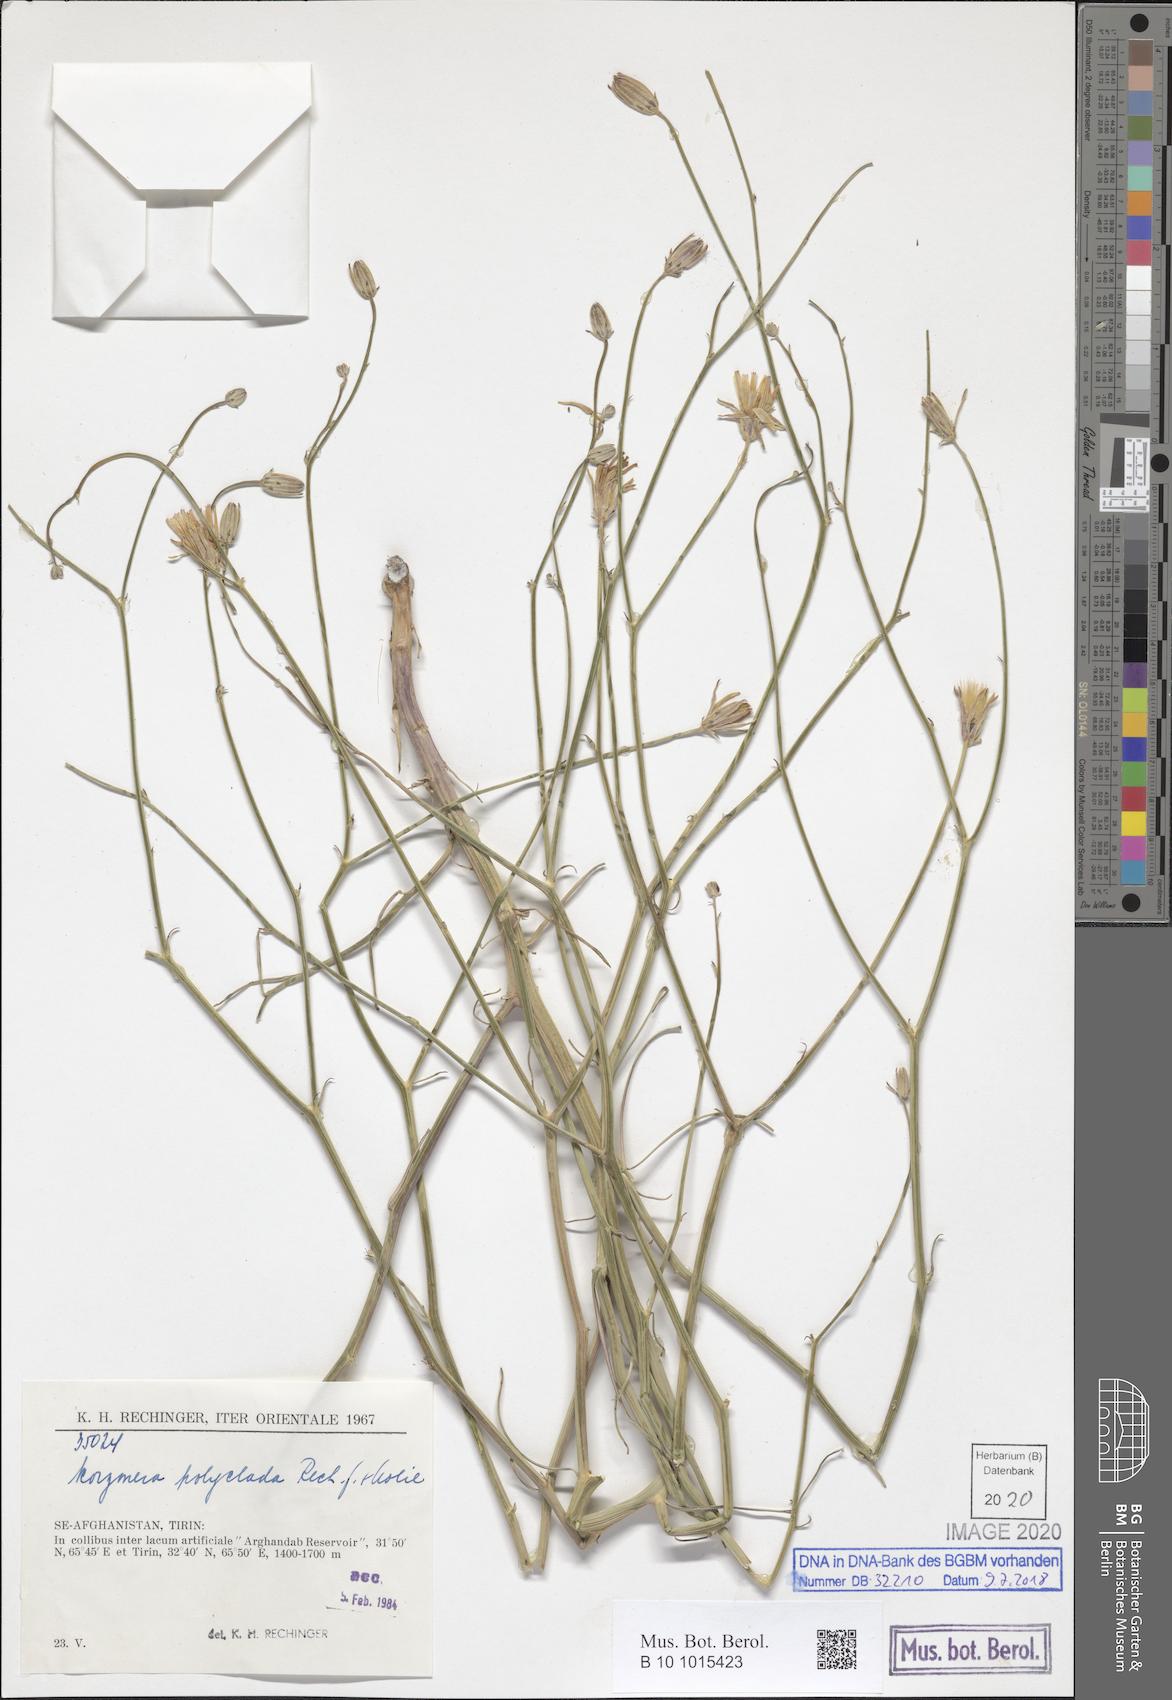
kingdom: Plantae
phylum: Tracheophyta
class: Magnoliopsida
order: Asterales
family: Asteraceae
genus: Ramaliella
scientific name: Ramaliella polyclada
